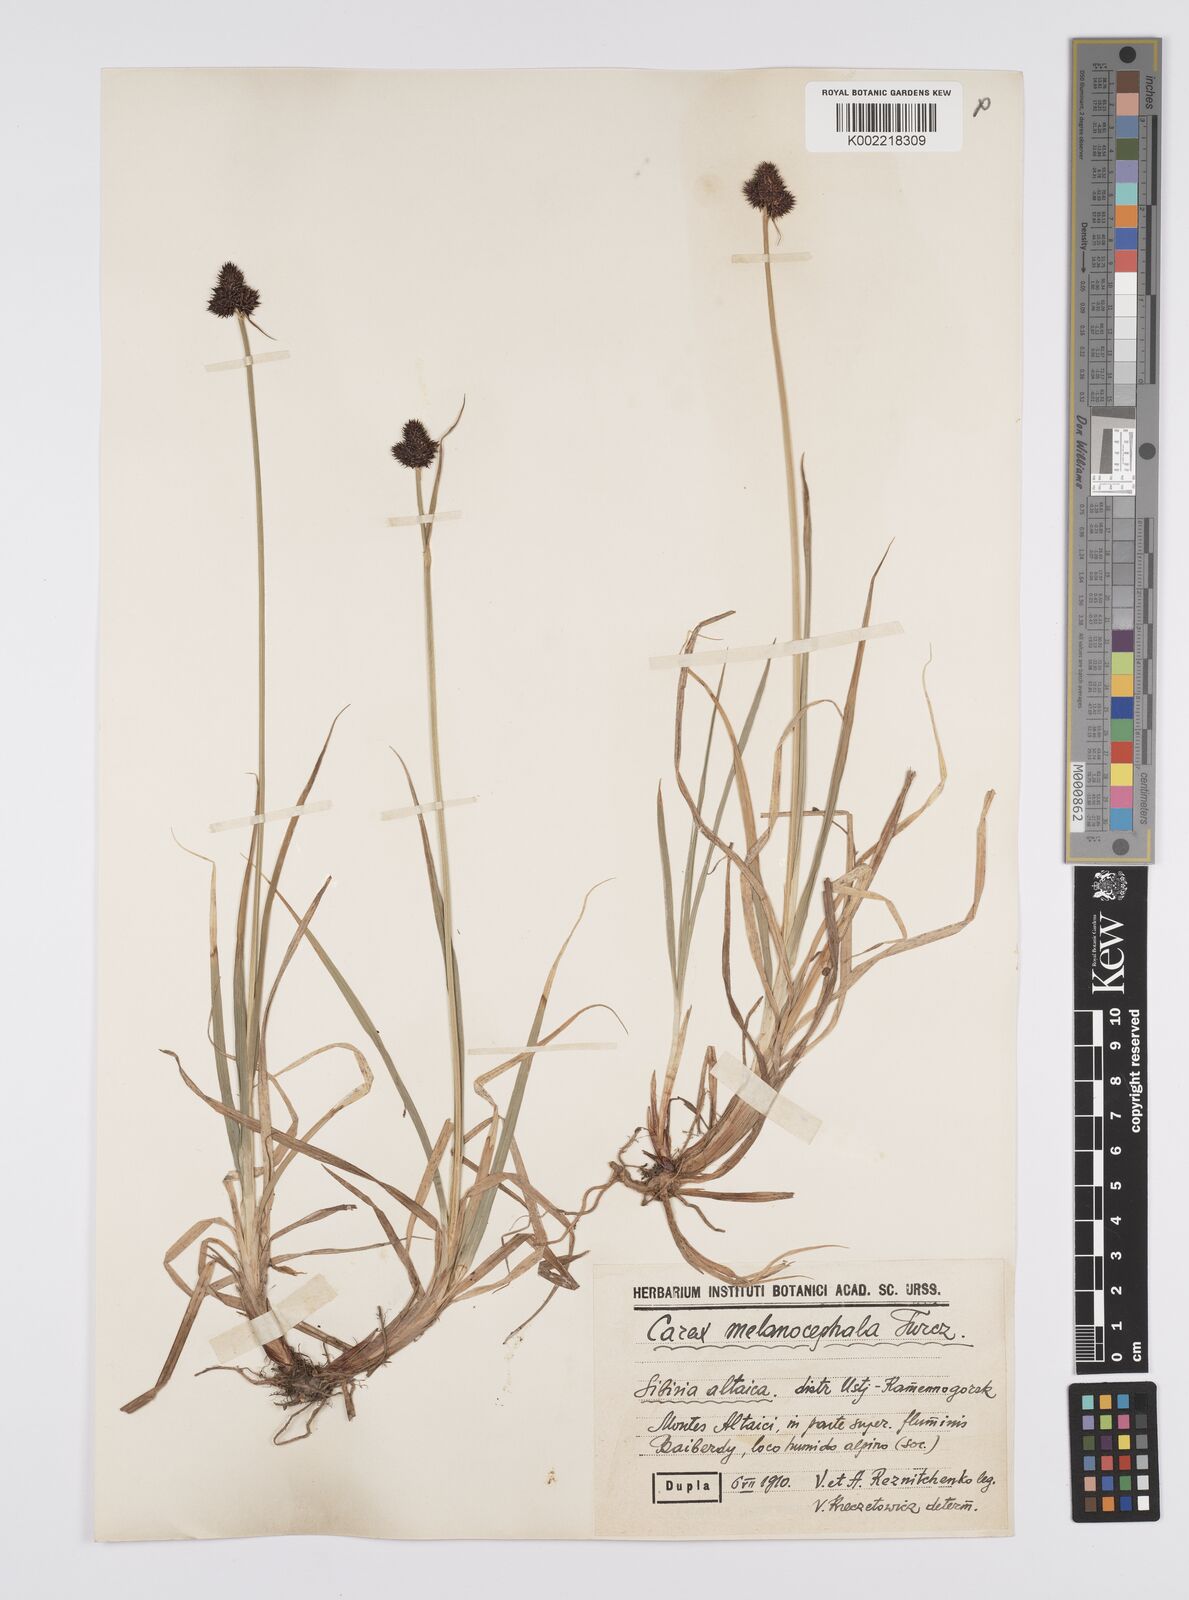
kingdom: Plantae
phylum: Tracheophyta
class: Liliopsida
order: Poales
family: Cyperaceae
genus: Carex
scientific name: Carex melanocephala
